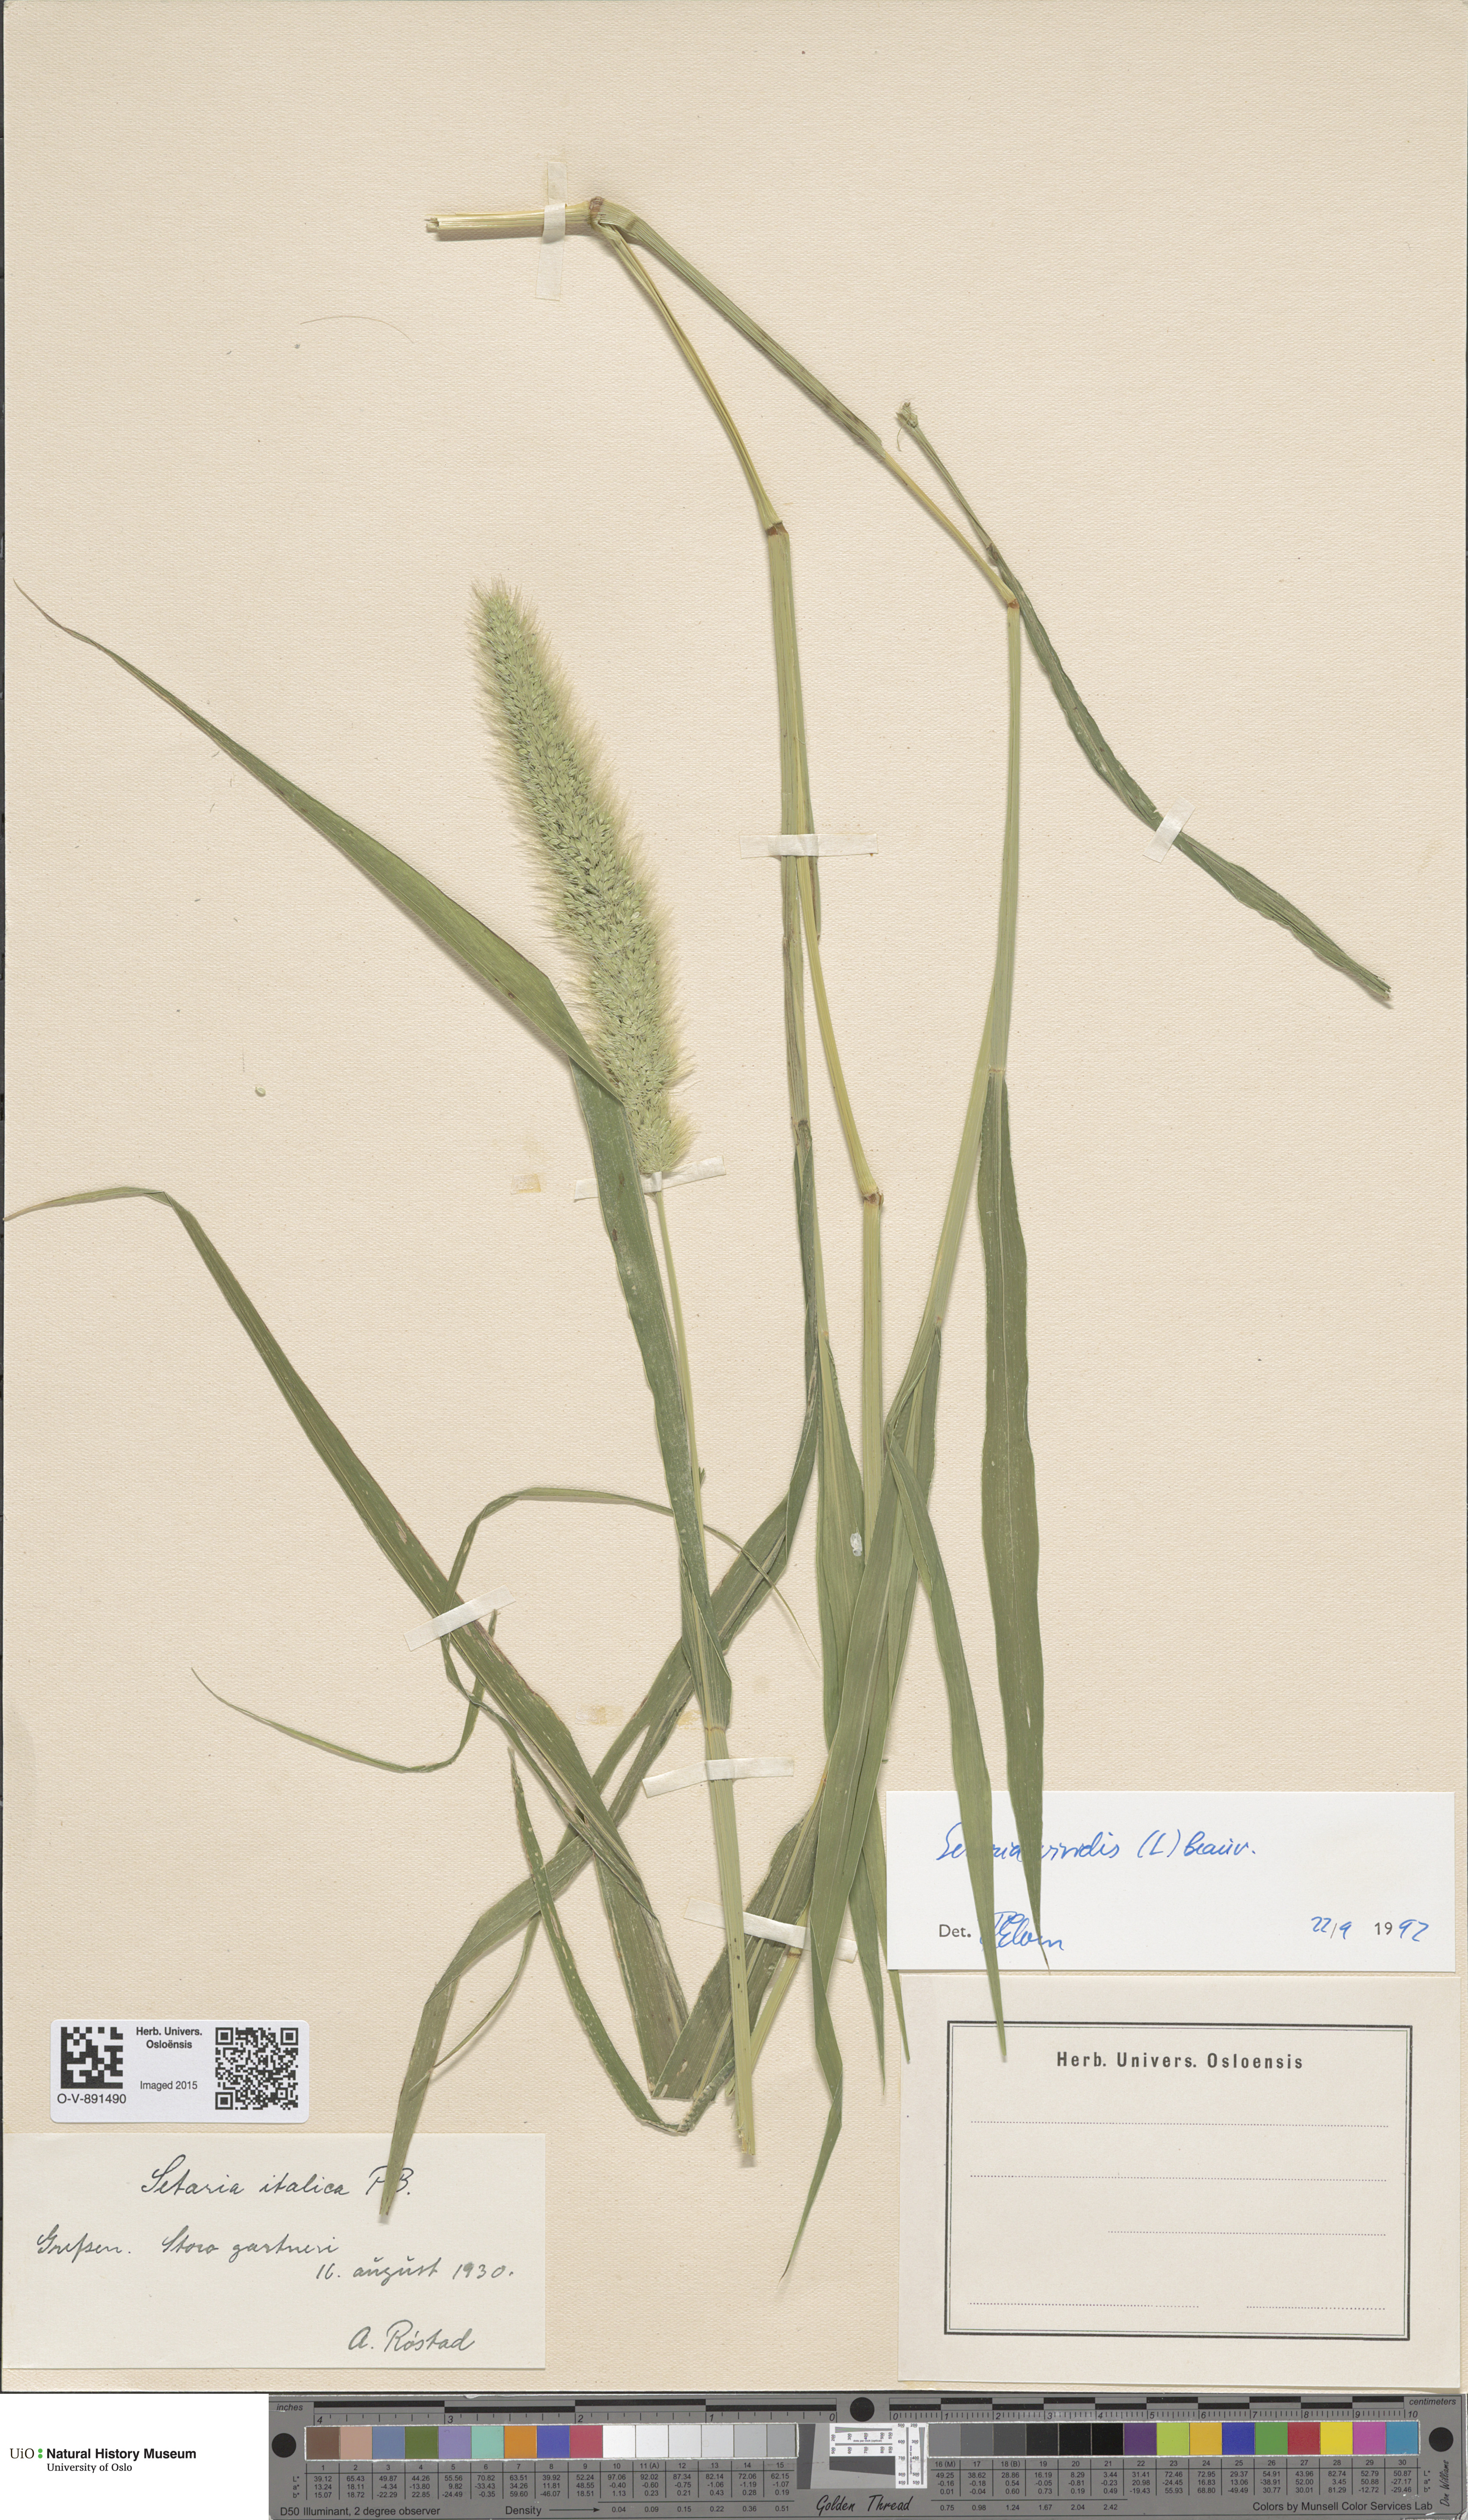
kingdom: Plantae
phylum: Tracheophyta
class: Liliopsida
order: Poales
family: Poaceae
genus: Setaria
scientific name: Setaria viridis
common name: Green bristlegrass
